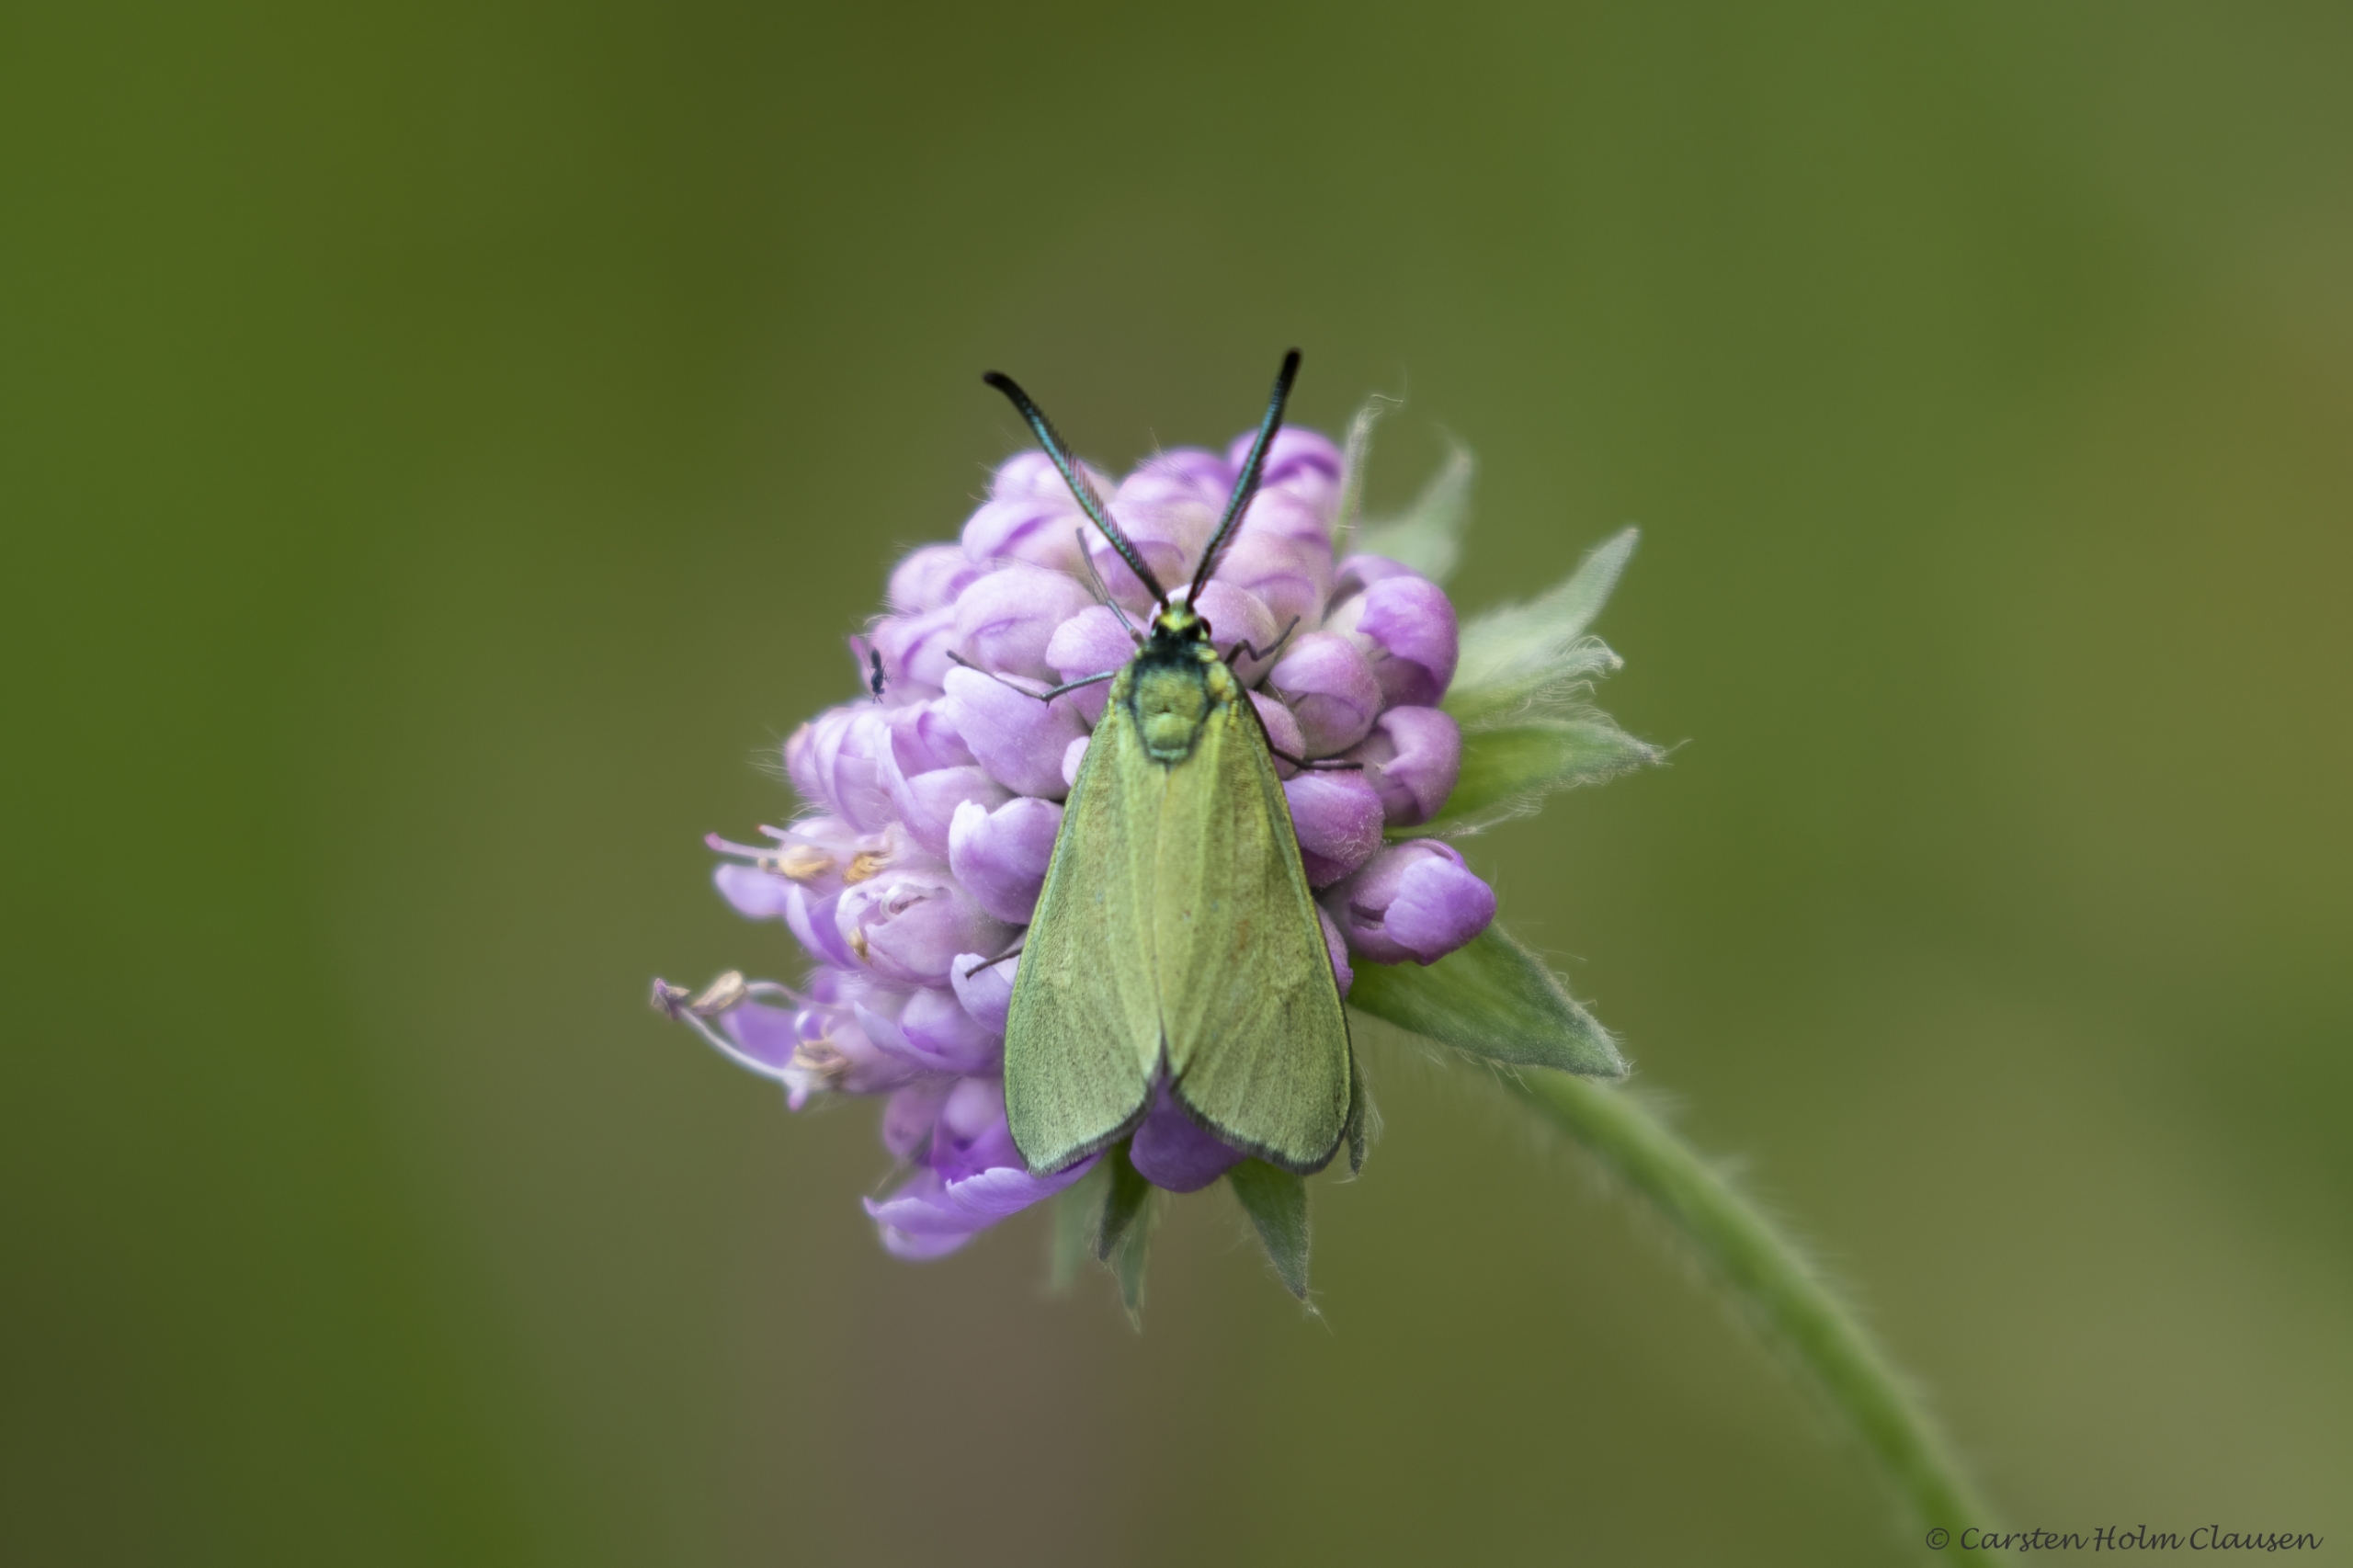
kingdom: Animalia
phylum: Arthropoda
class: Insecta
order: Lepidoptera
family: Zygaenidae
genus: Adscita
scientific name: Adscita statices
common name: Metalvinge
